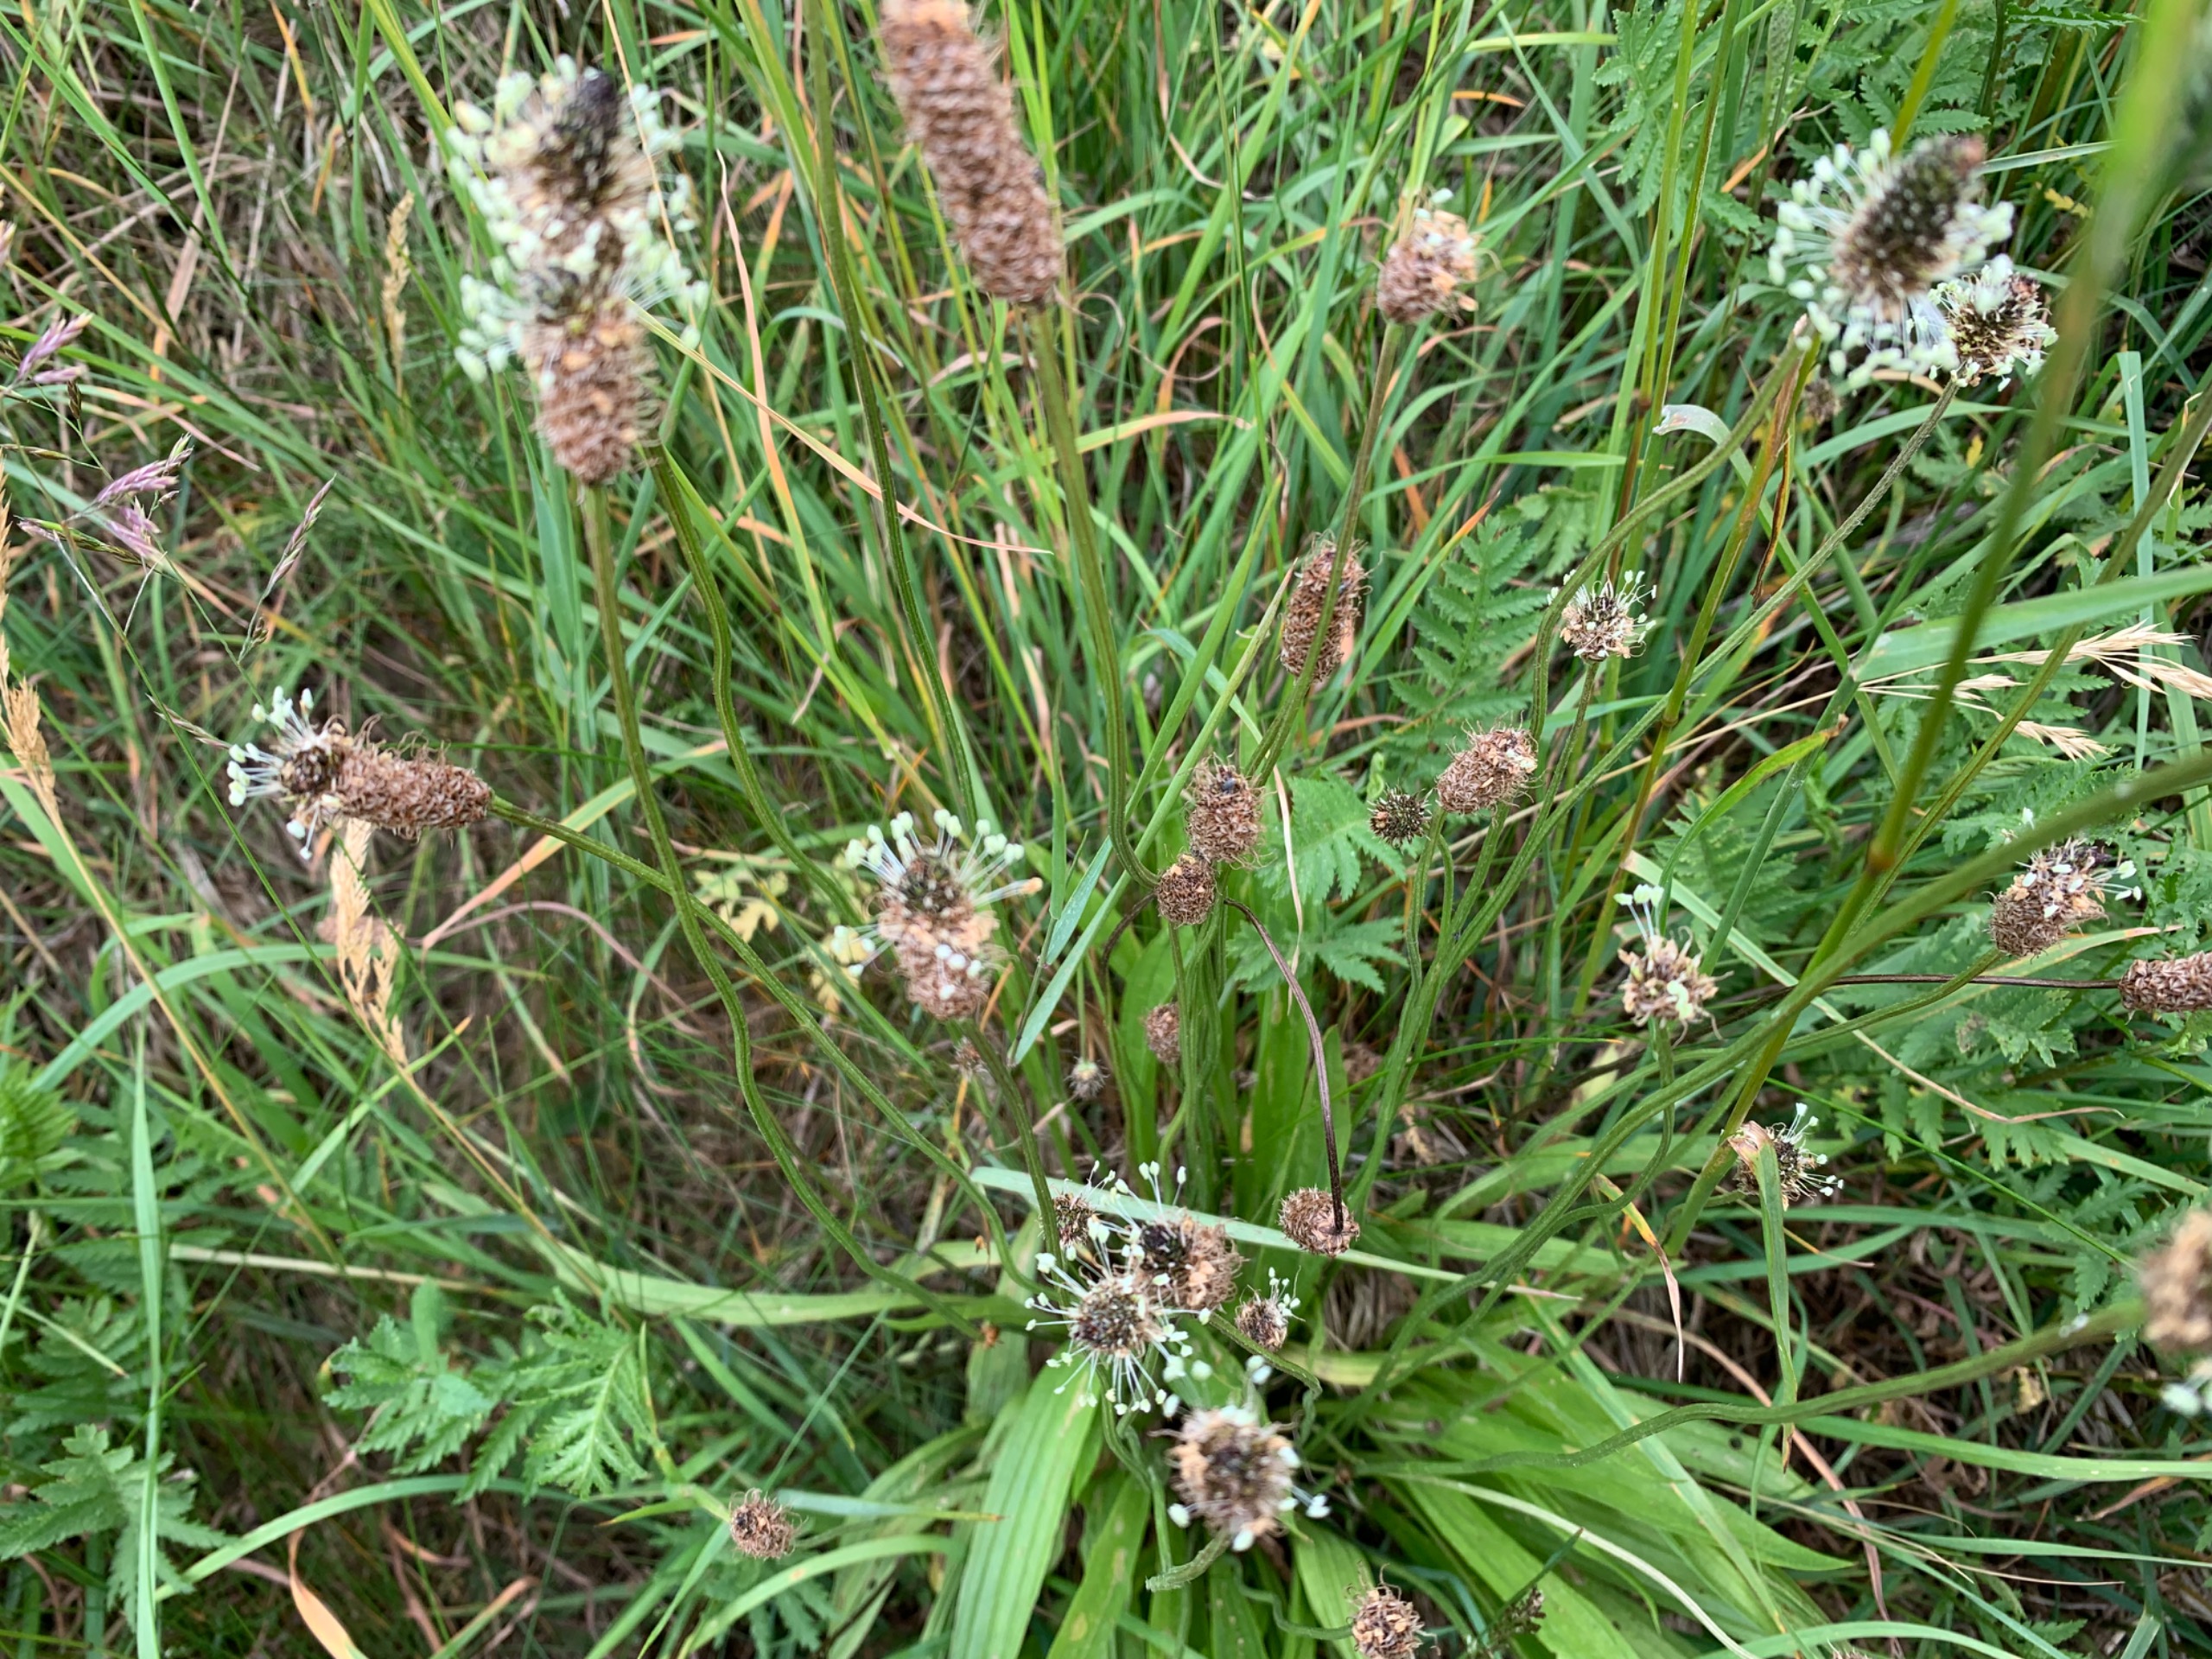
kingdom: Plantae
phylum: Tracheophyta
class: Magnoliopsida
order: Lamiales
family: Plantaginaceae
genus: Plantago
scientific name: Plantago lanceolata
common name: Lancet-vejbred
